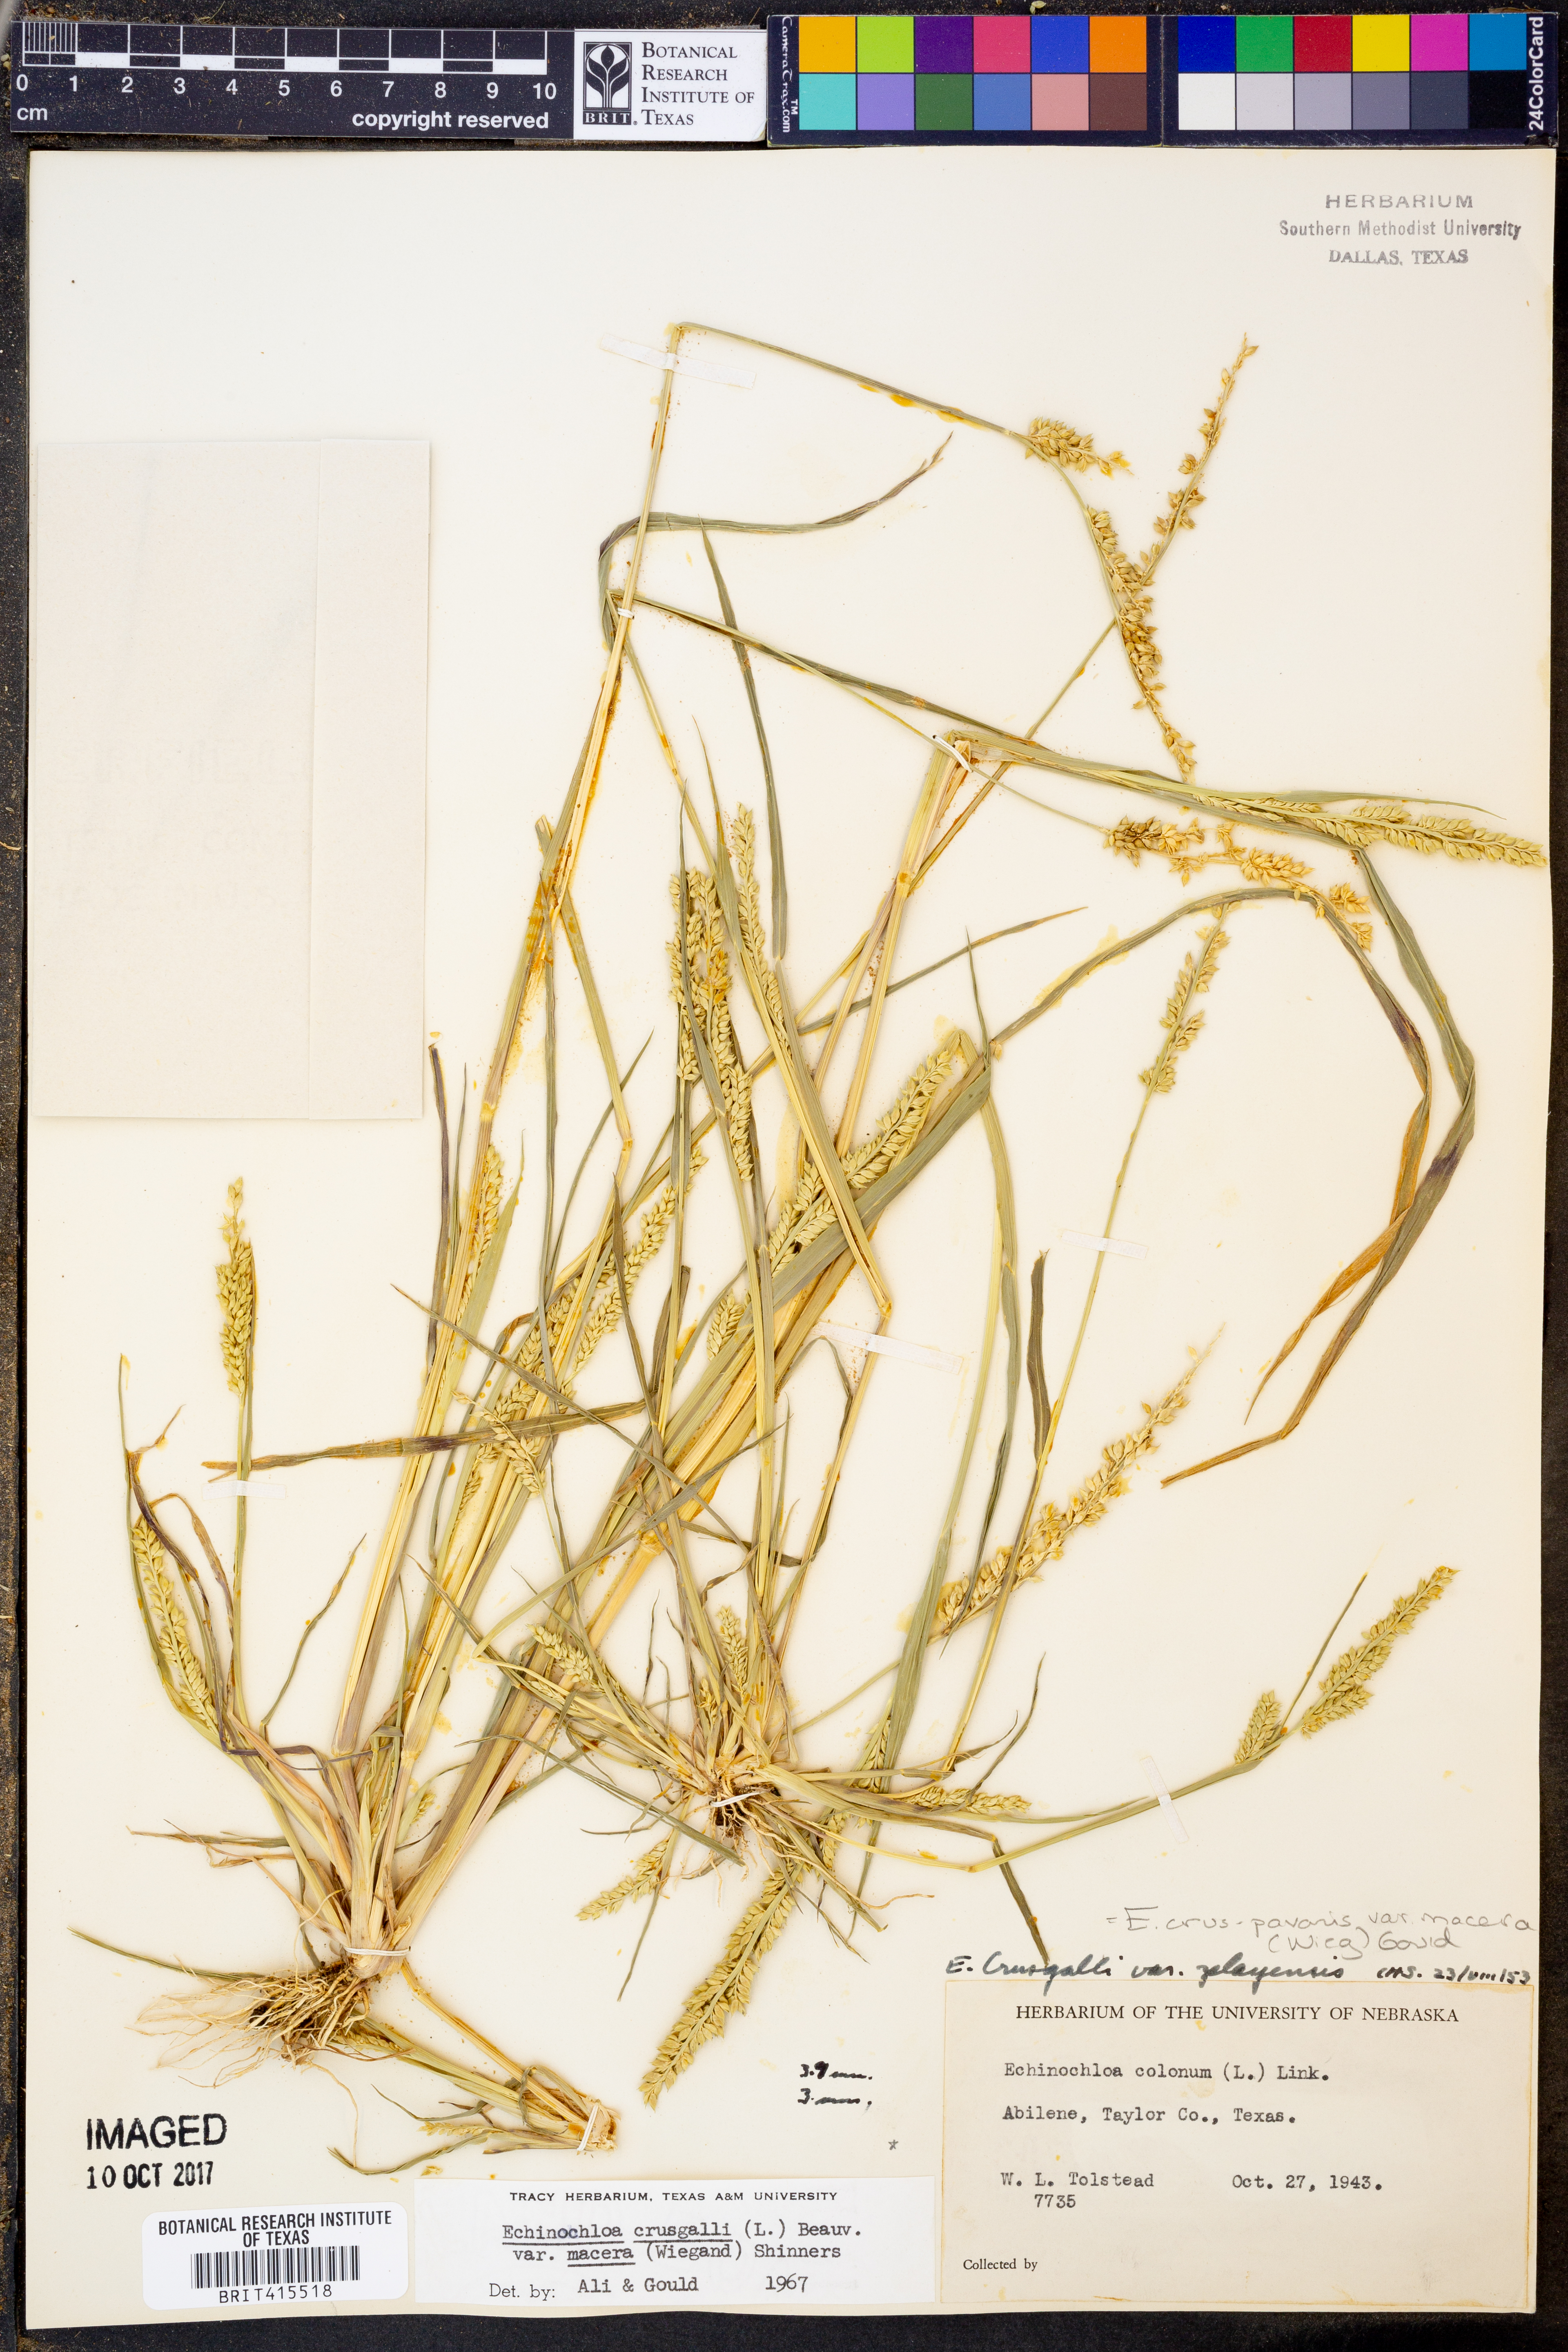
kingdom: Plantae
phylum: Tracheophyta
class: Liliopsida
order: Poales
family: Poaceae
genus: Echinochloa
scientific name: Echinochloa crus-pavonis
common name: Gulf cockspur grass
